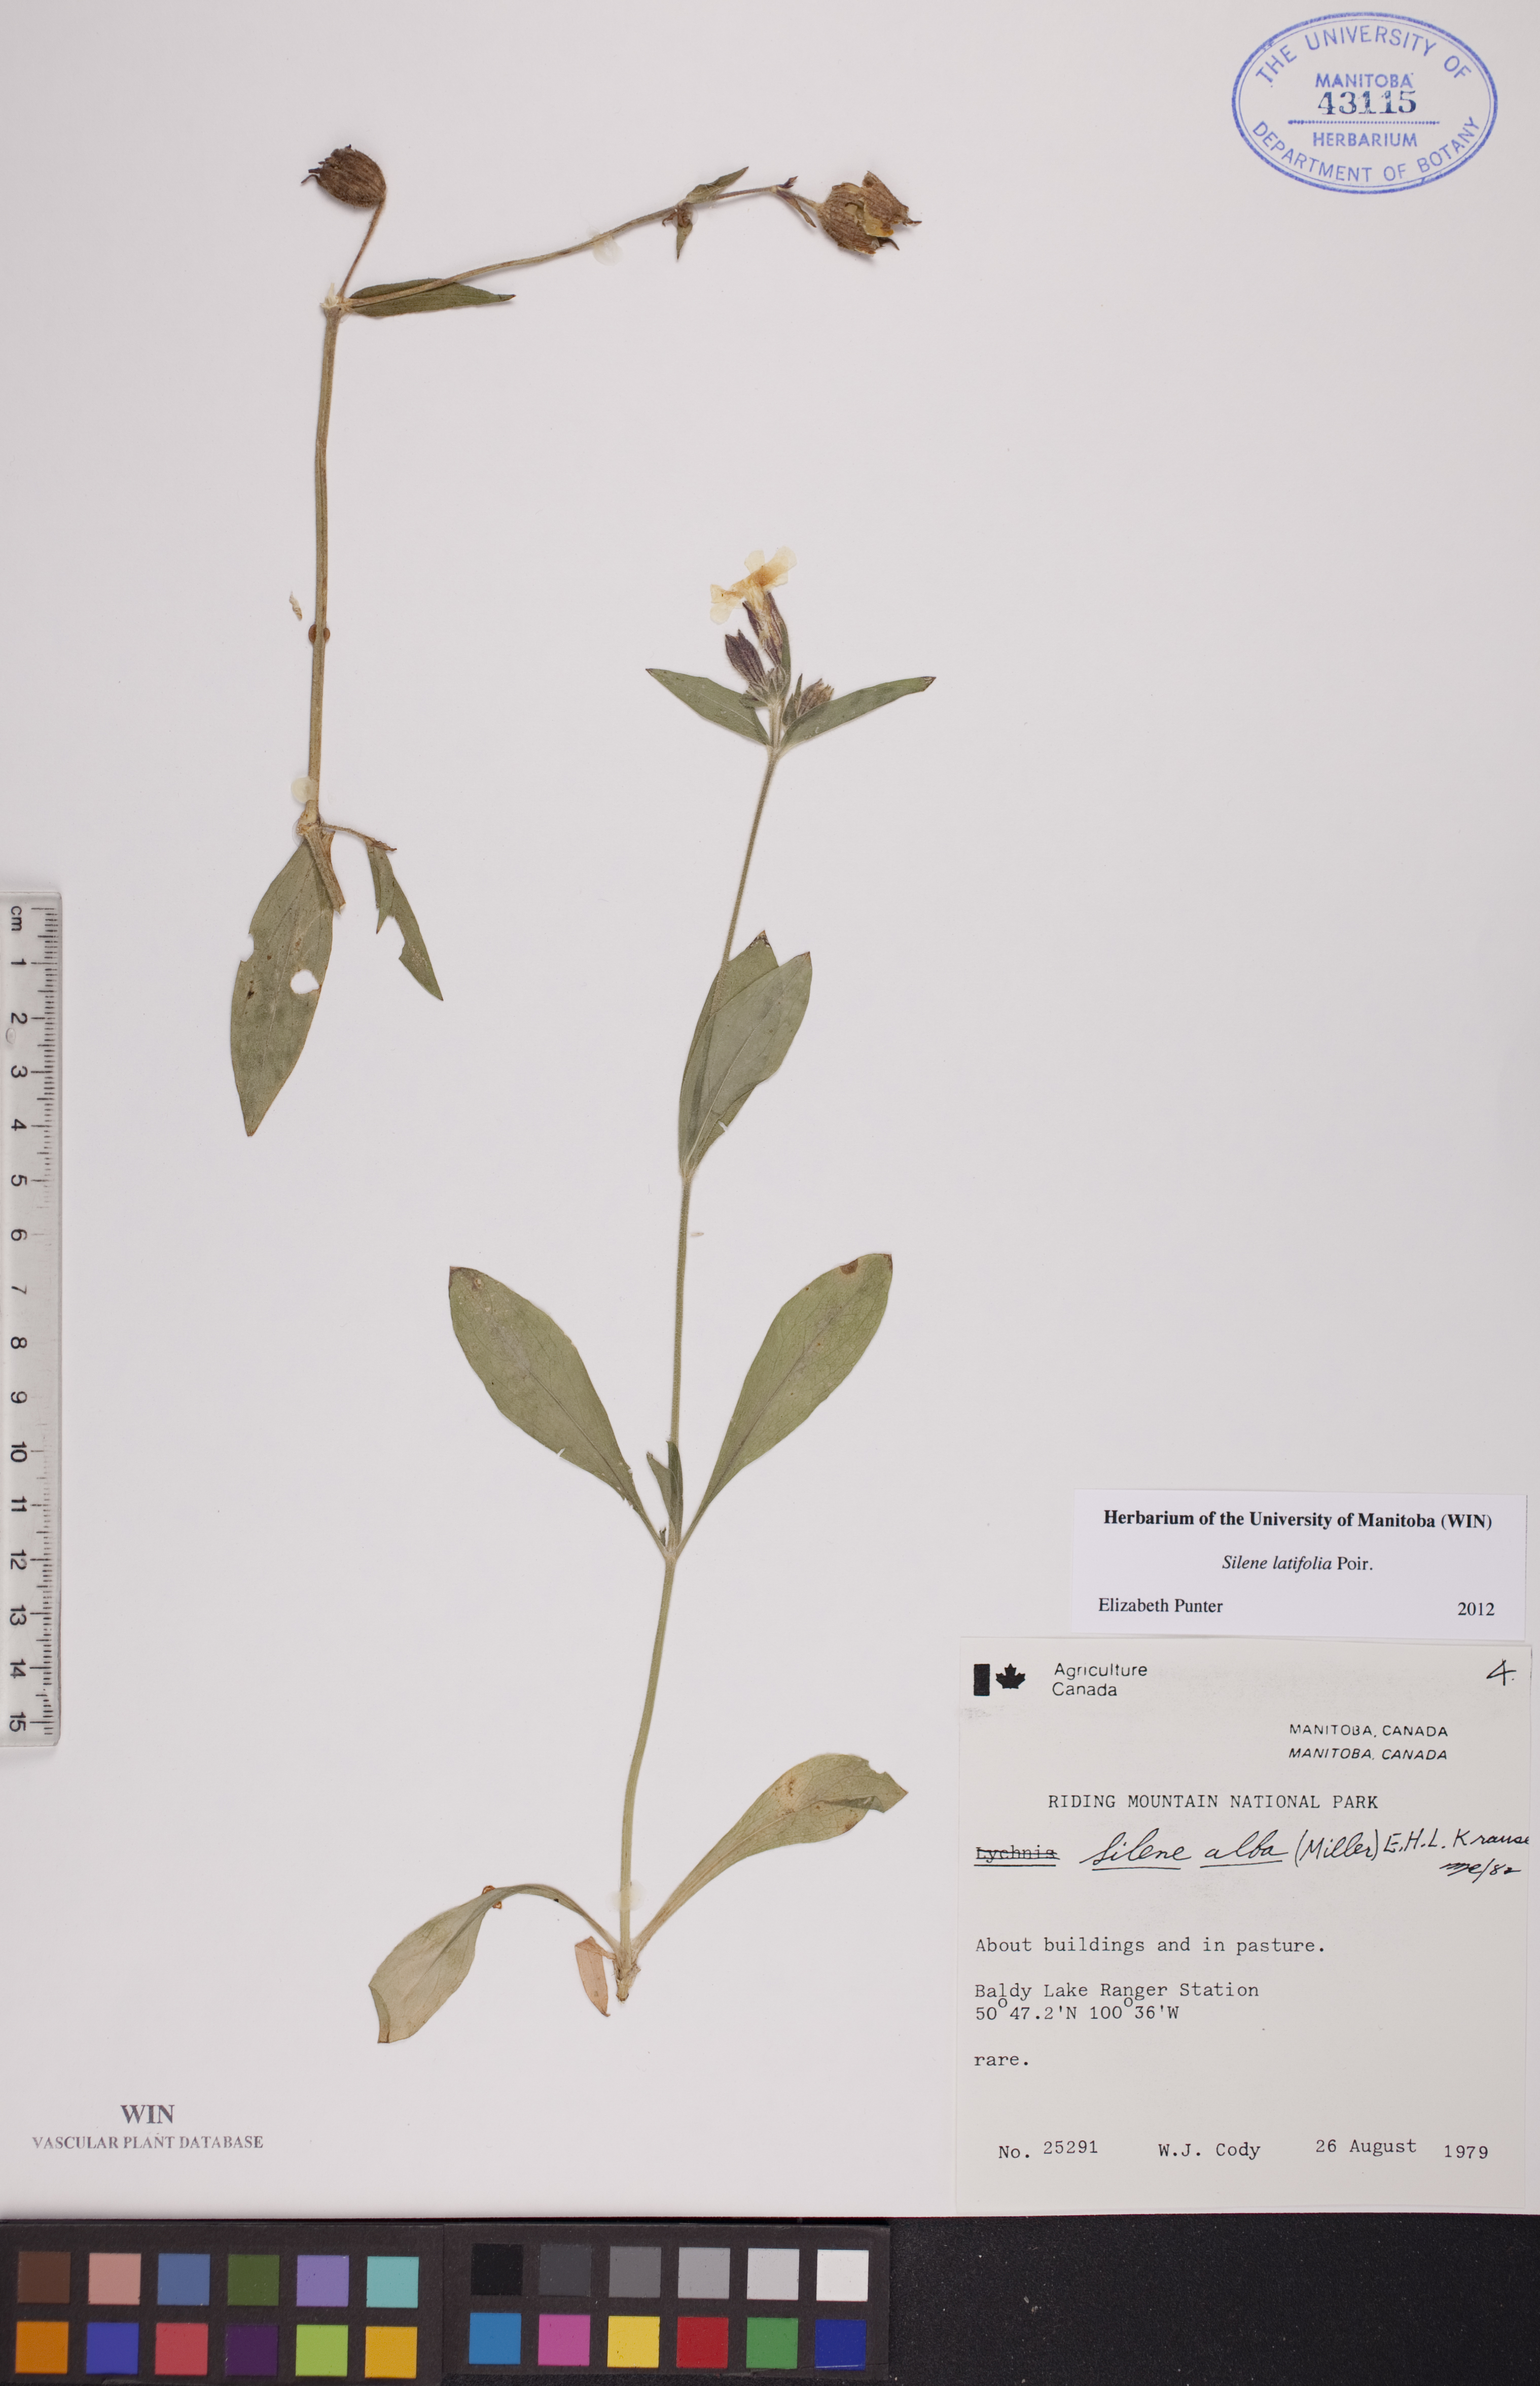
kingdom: Plantae
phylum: Tracheophyta
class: Magnoliopsida
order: Caryophyllales
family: Caryophyllaceae
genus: Silene
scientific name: Silene latifolia
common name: White campion
